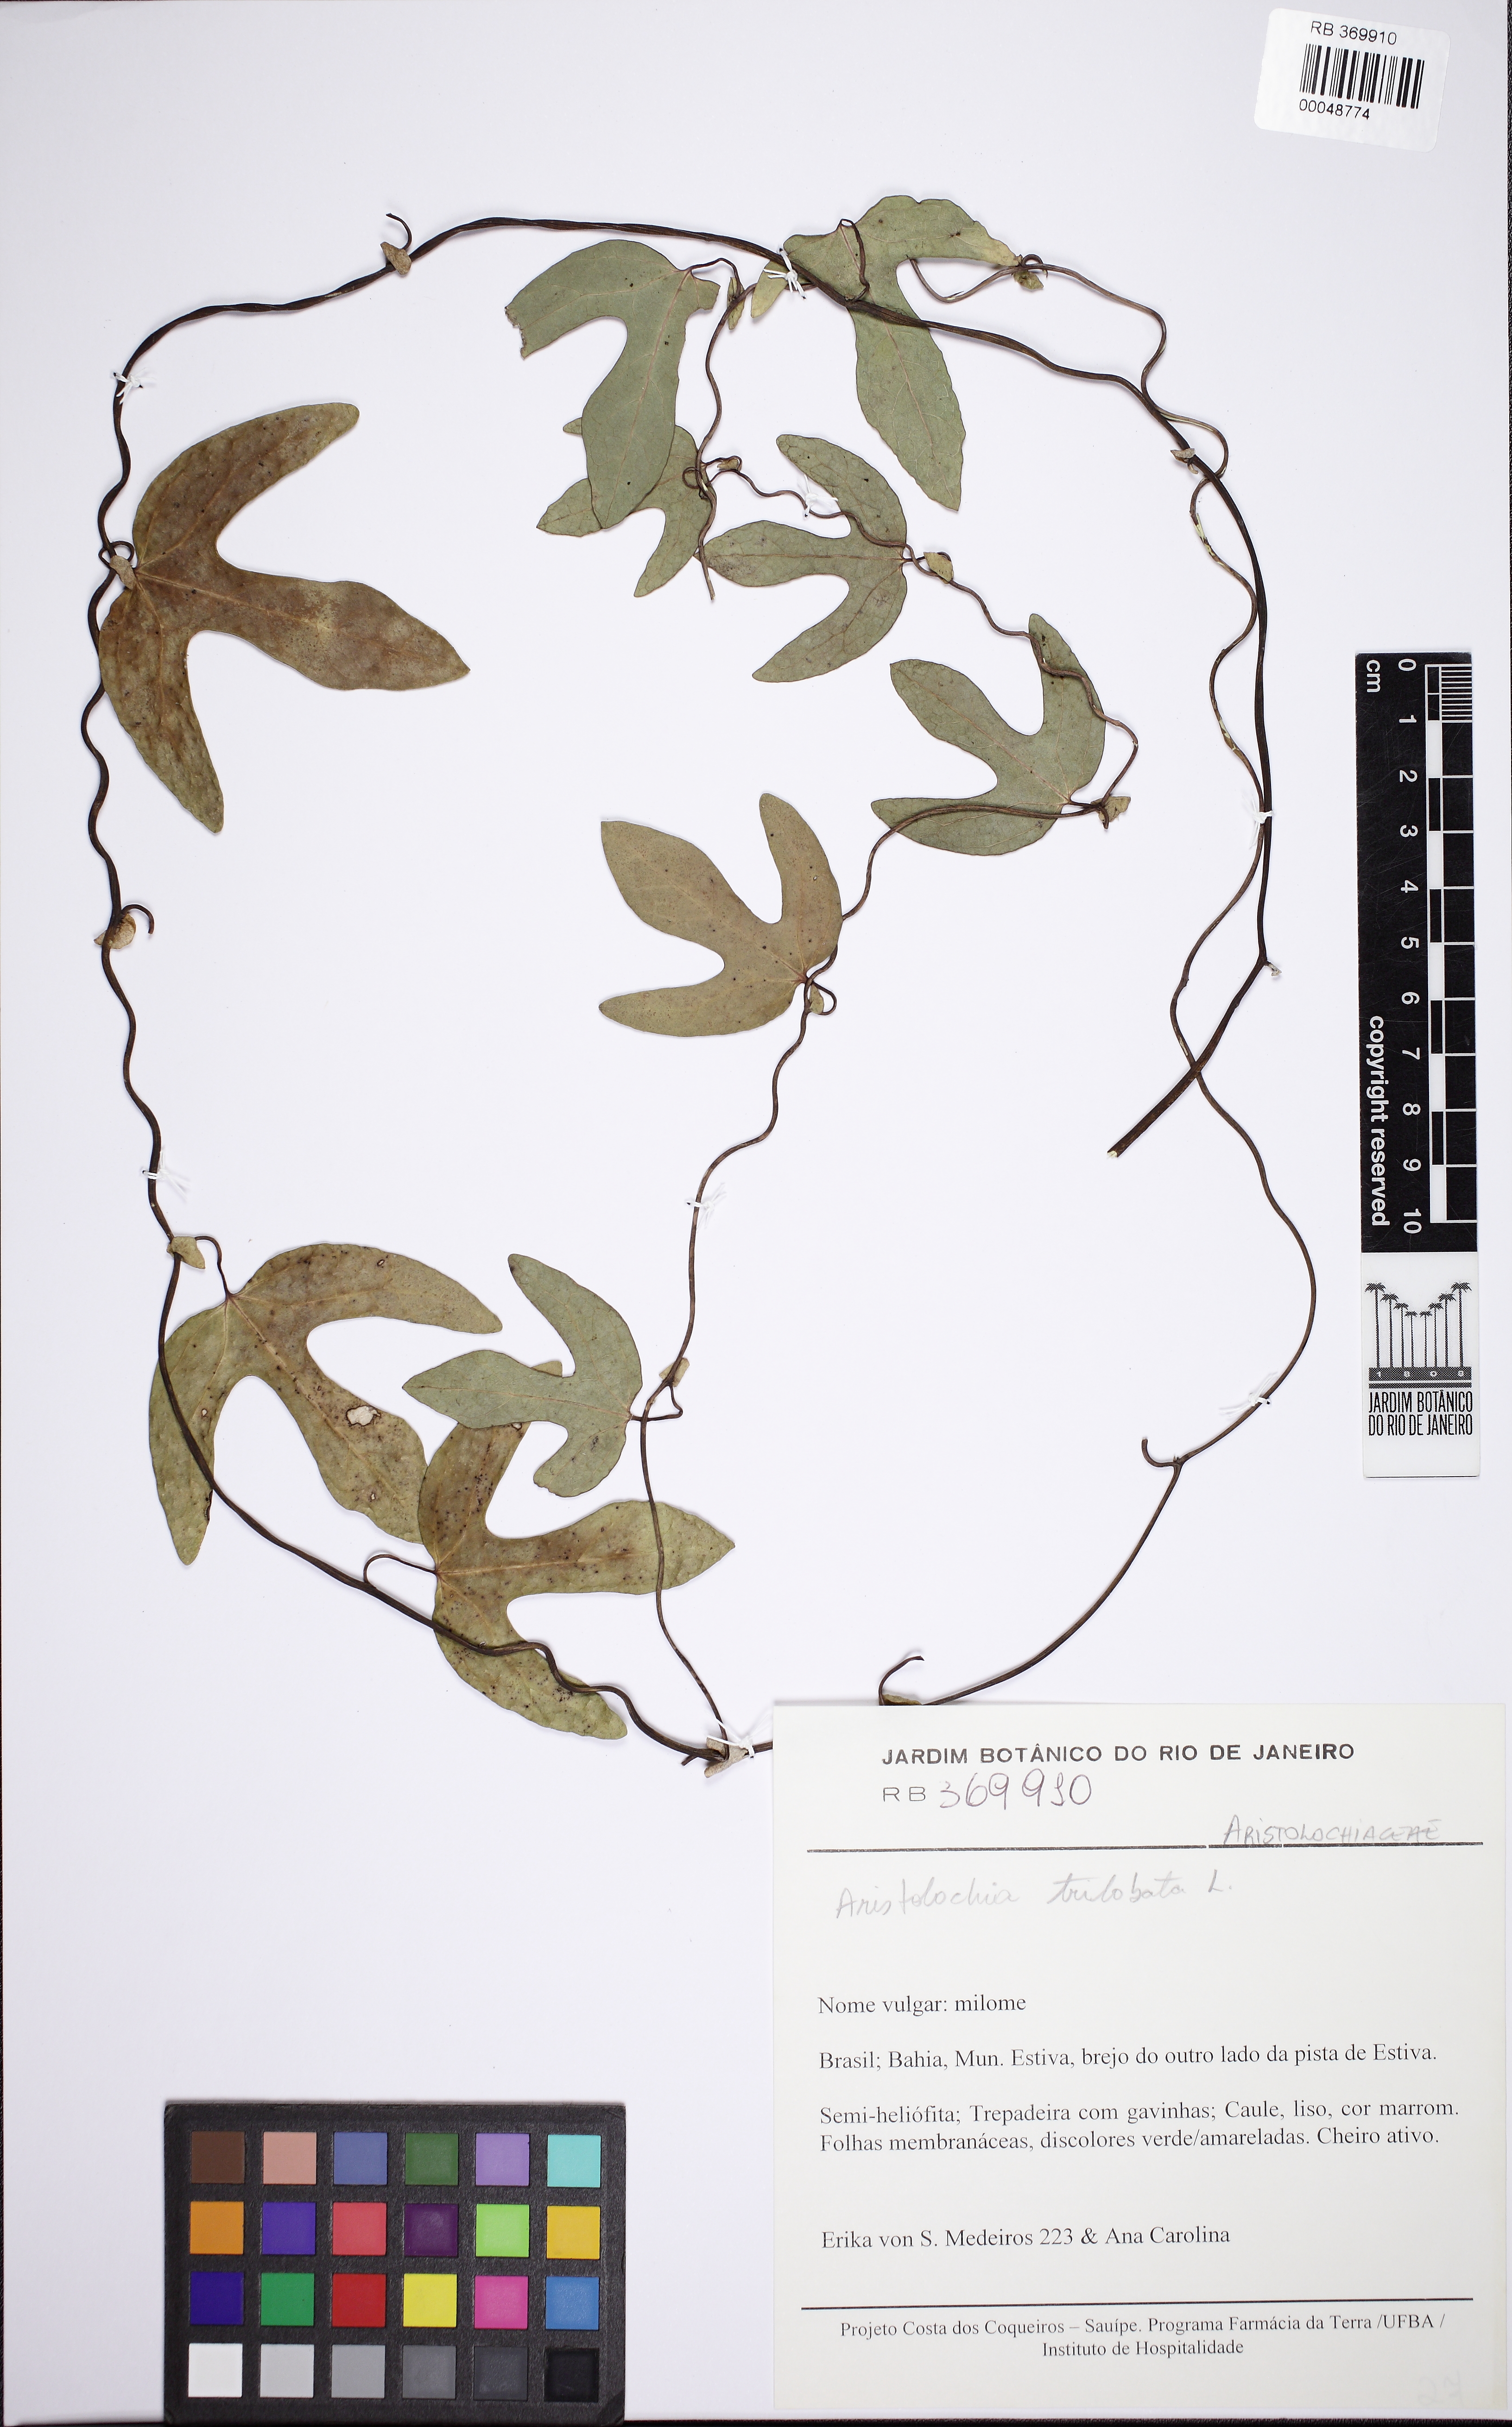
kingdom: Plantae
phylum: Tracheophyta
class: Magnoliopsida
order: Piperales
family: Aristolochiaceae
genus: Aristolochia
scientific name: Aristolochia trilobata
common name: Dutchman's pipe
